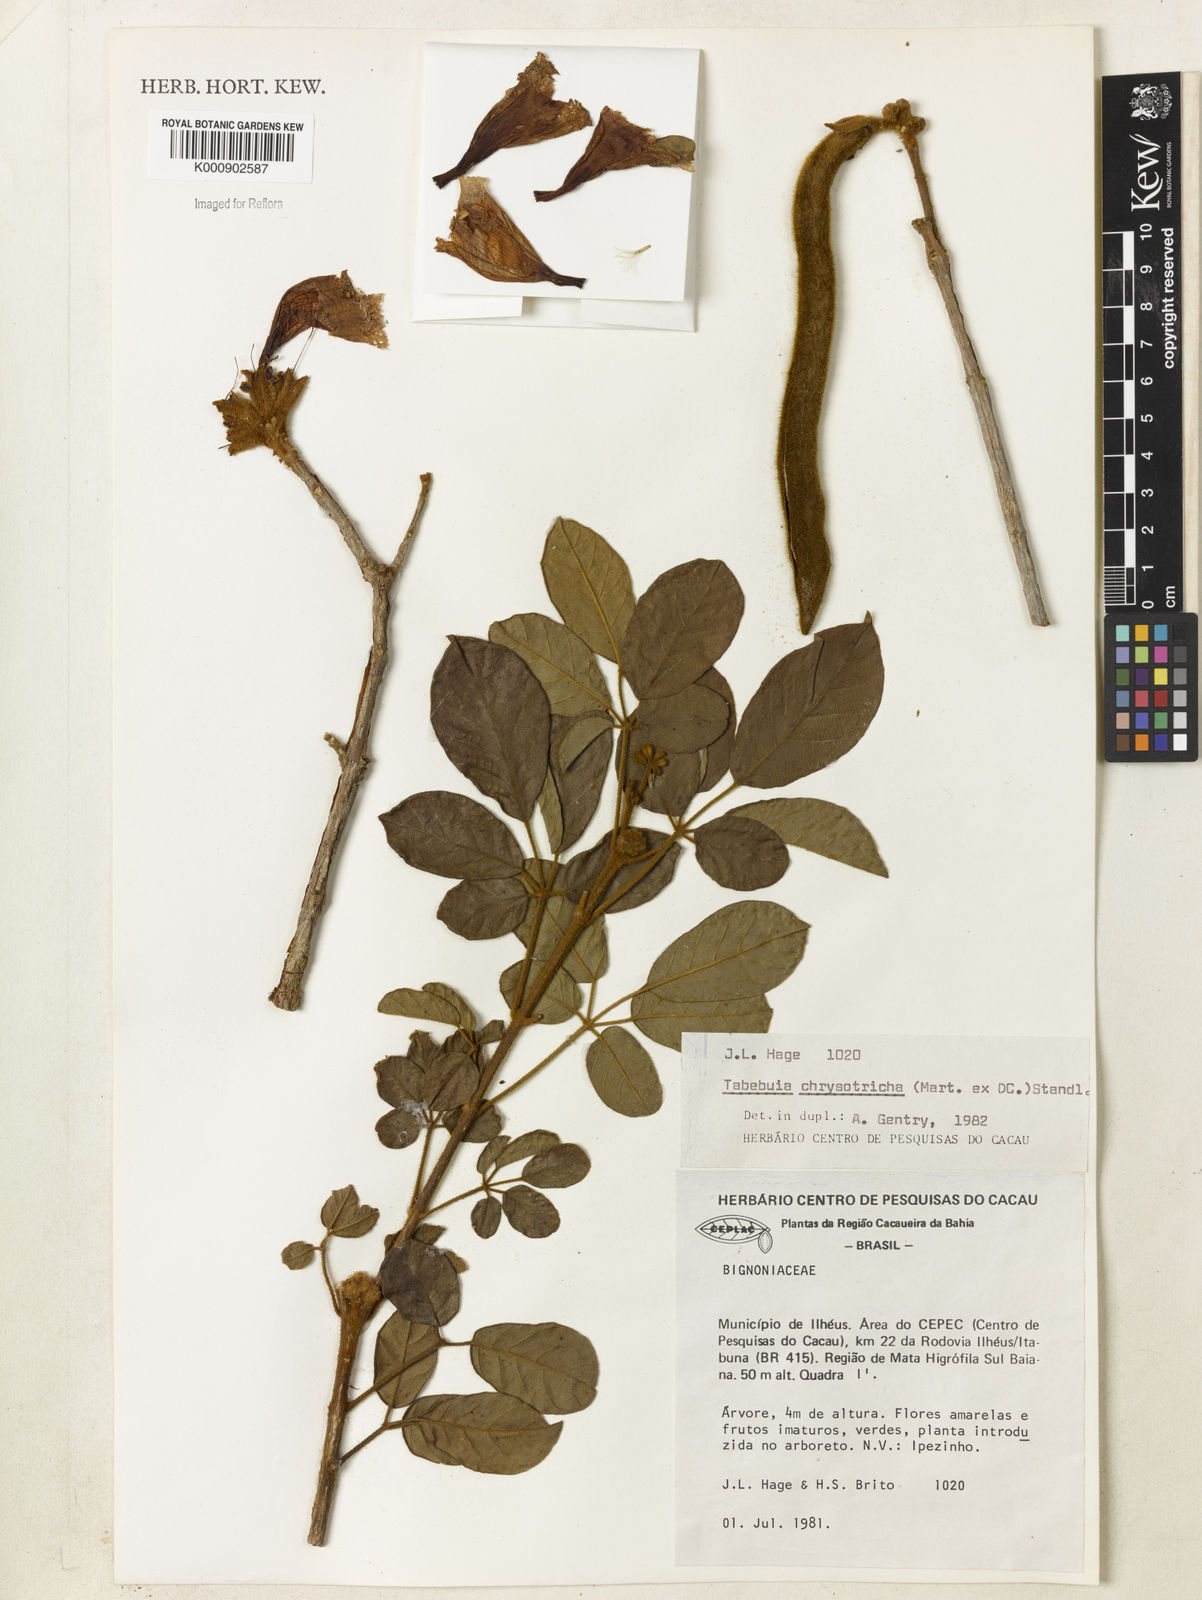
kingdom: Plantae
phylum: Tracheophyta
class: Magnoliopsida
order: Lamiales
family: Bignoniaceae
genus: Handroanthus
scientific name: Handroanthus chrysotrichus
